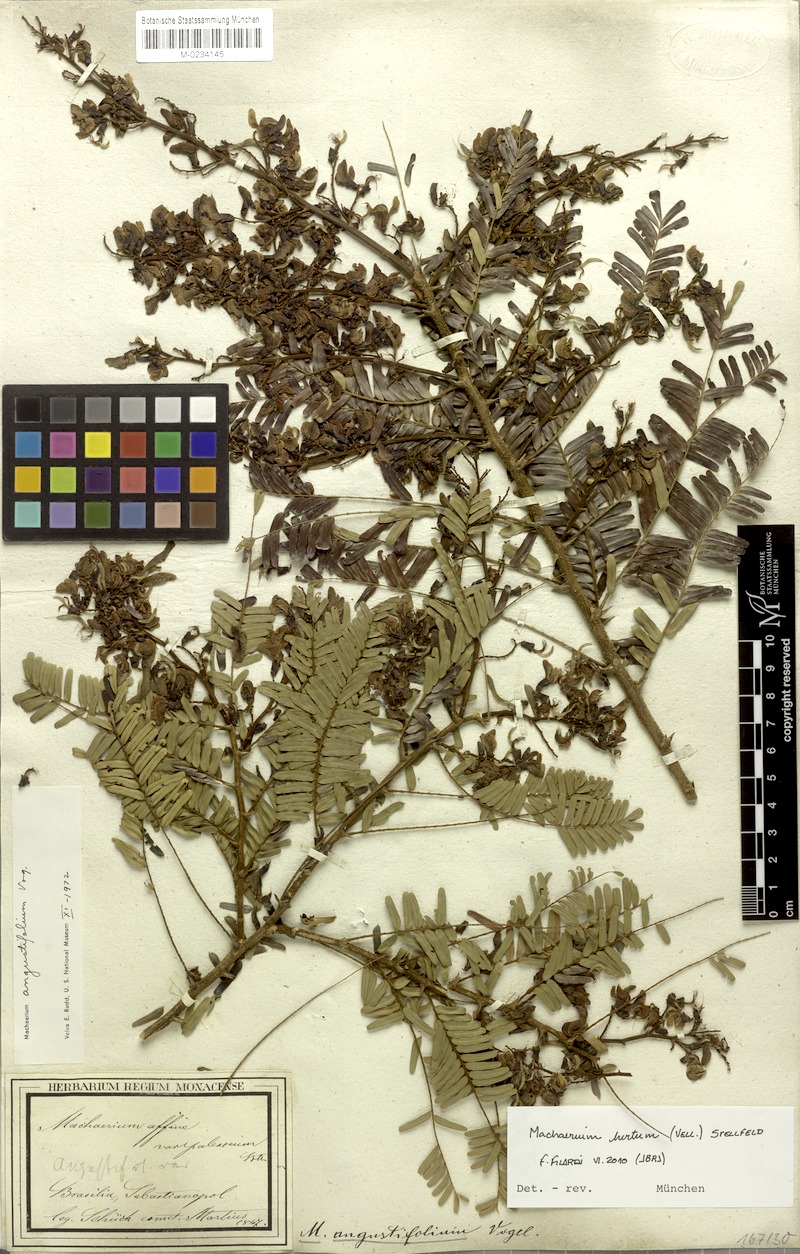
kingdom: Plantae
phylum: Tracheophyta
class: Magnoliopsida
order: Fabales
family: Fabaceae
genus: Machaerium
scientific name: Machaerium hirtum
